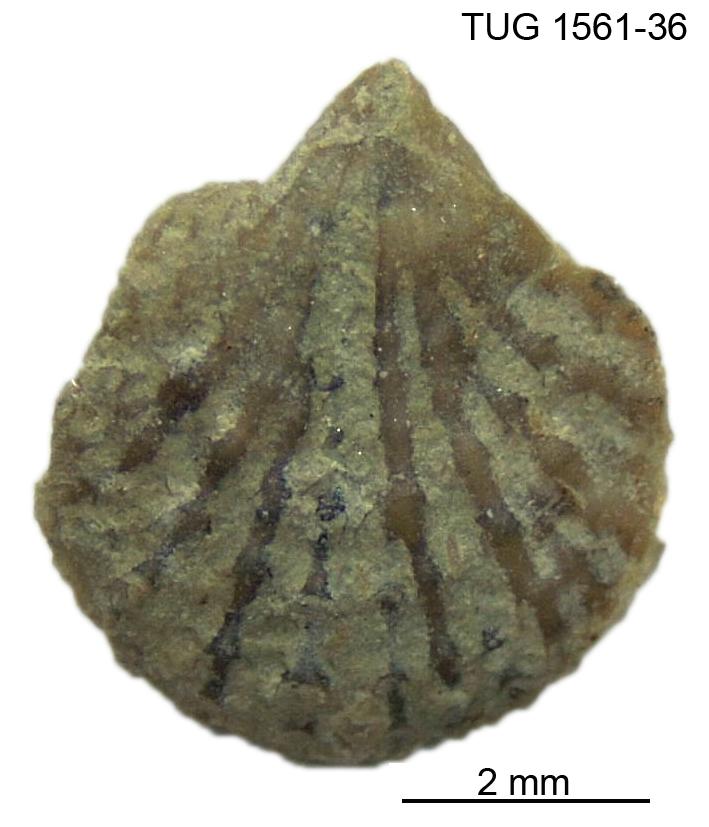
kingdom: Animalia
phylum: Brachiopoda
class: Rhynchonellata
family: Atrypidae
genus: Atrypa
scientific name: Atrypa reticularis
